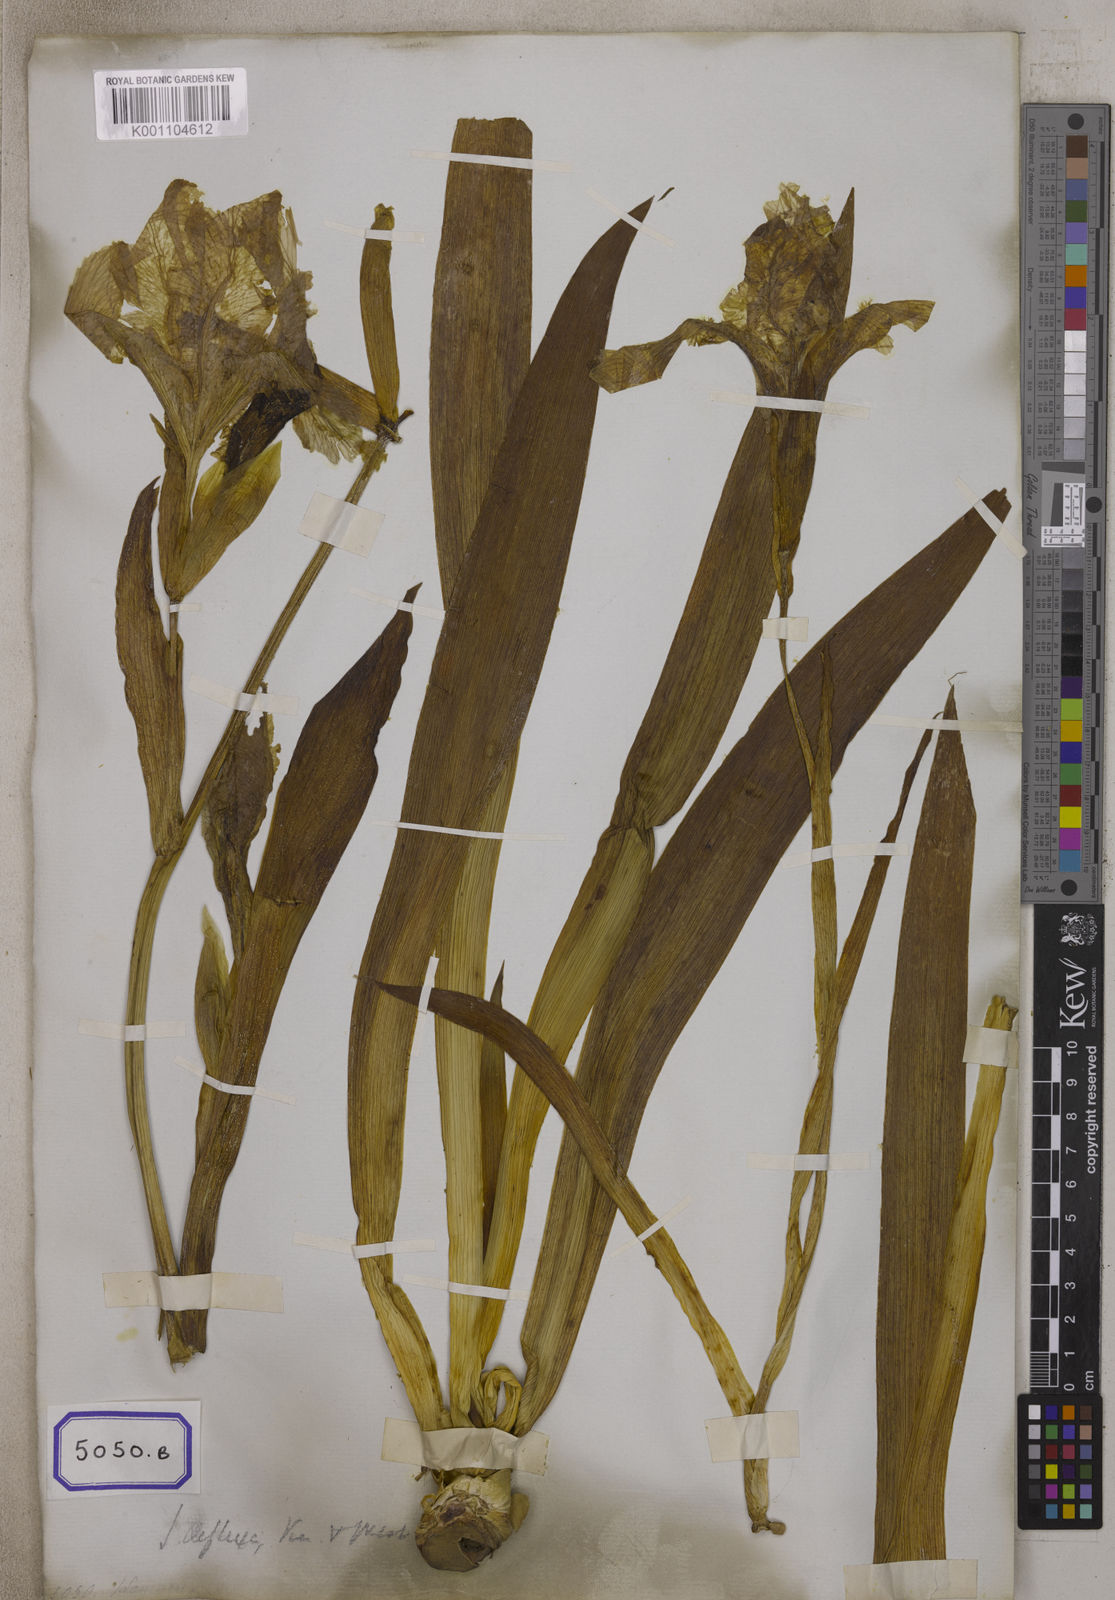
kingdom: Plantae
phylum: Tracheophyta
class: Liliopsida
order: Asparagales
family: Iridaceae
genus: Iris
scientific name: Iris
